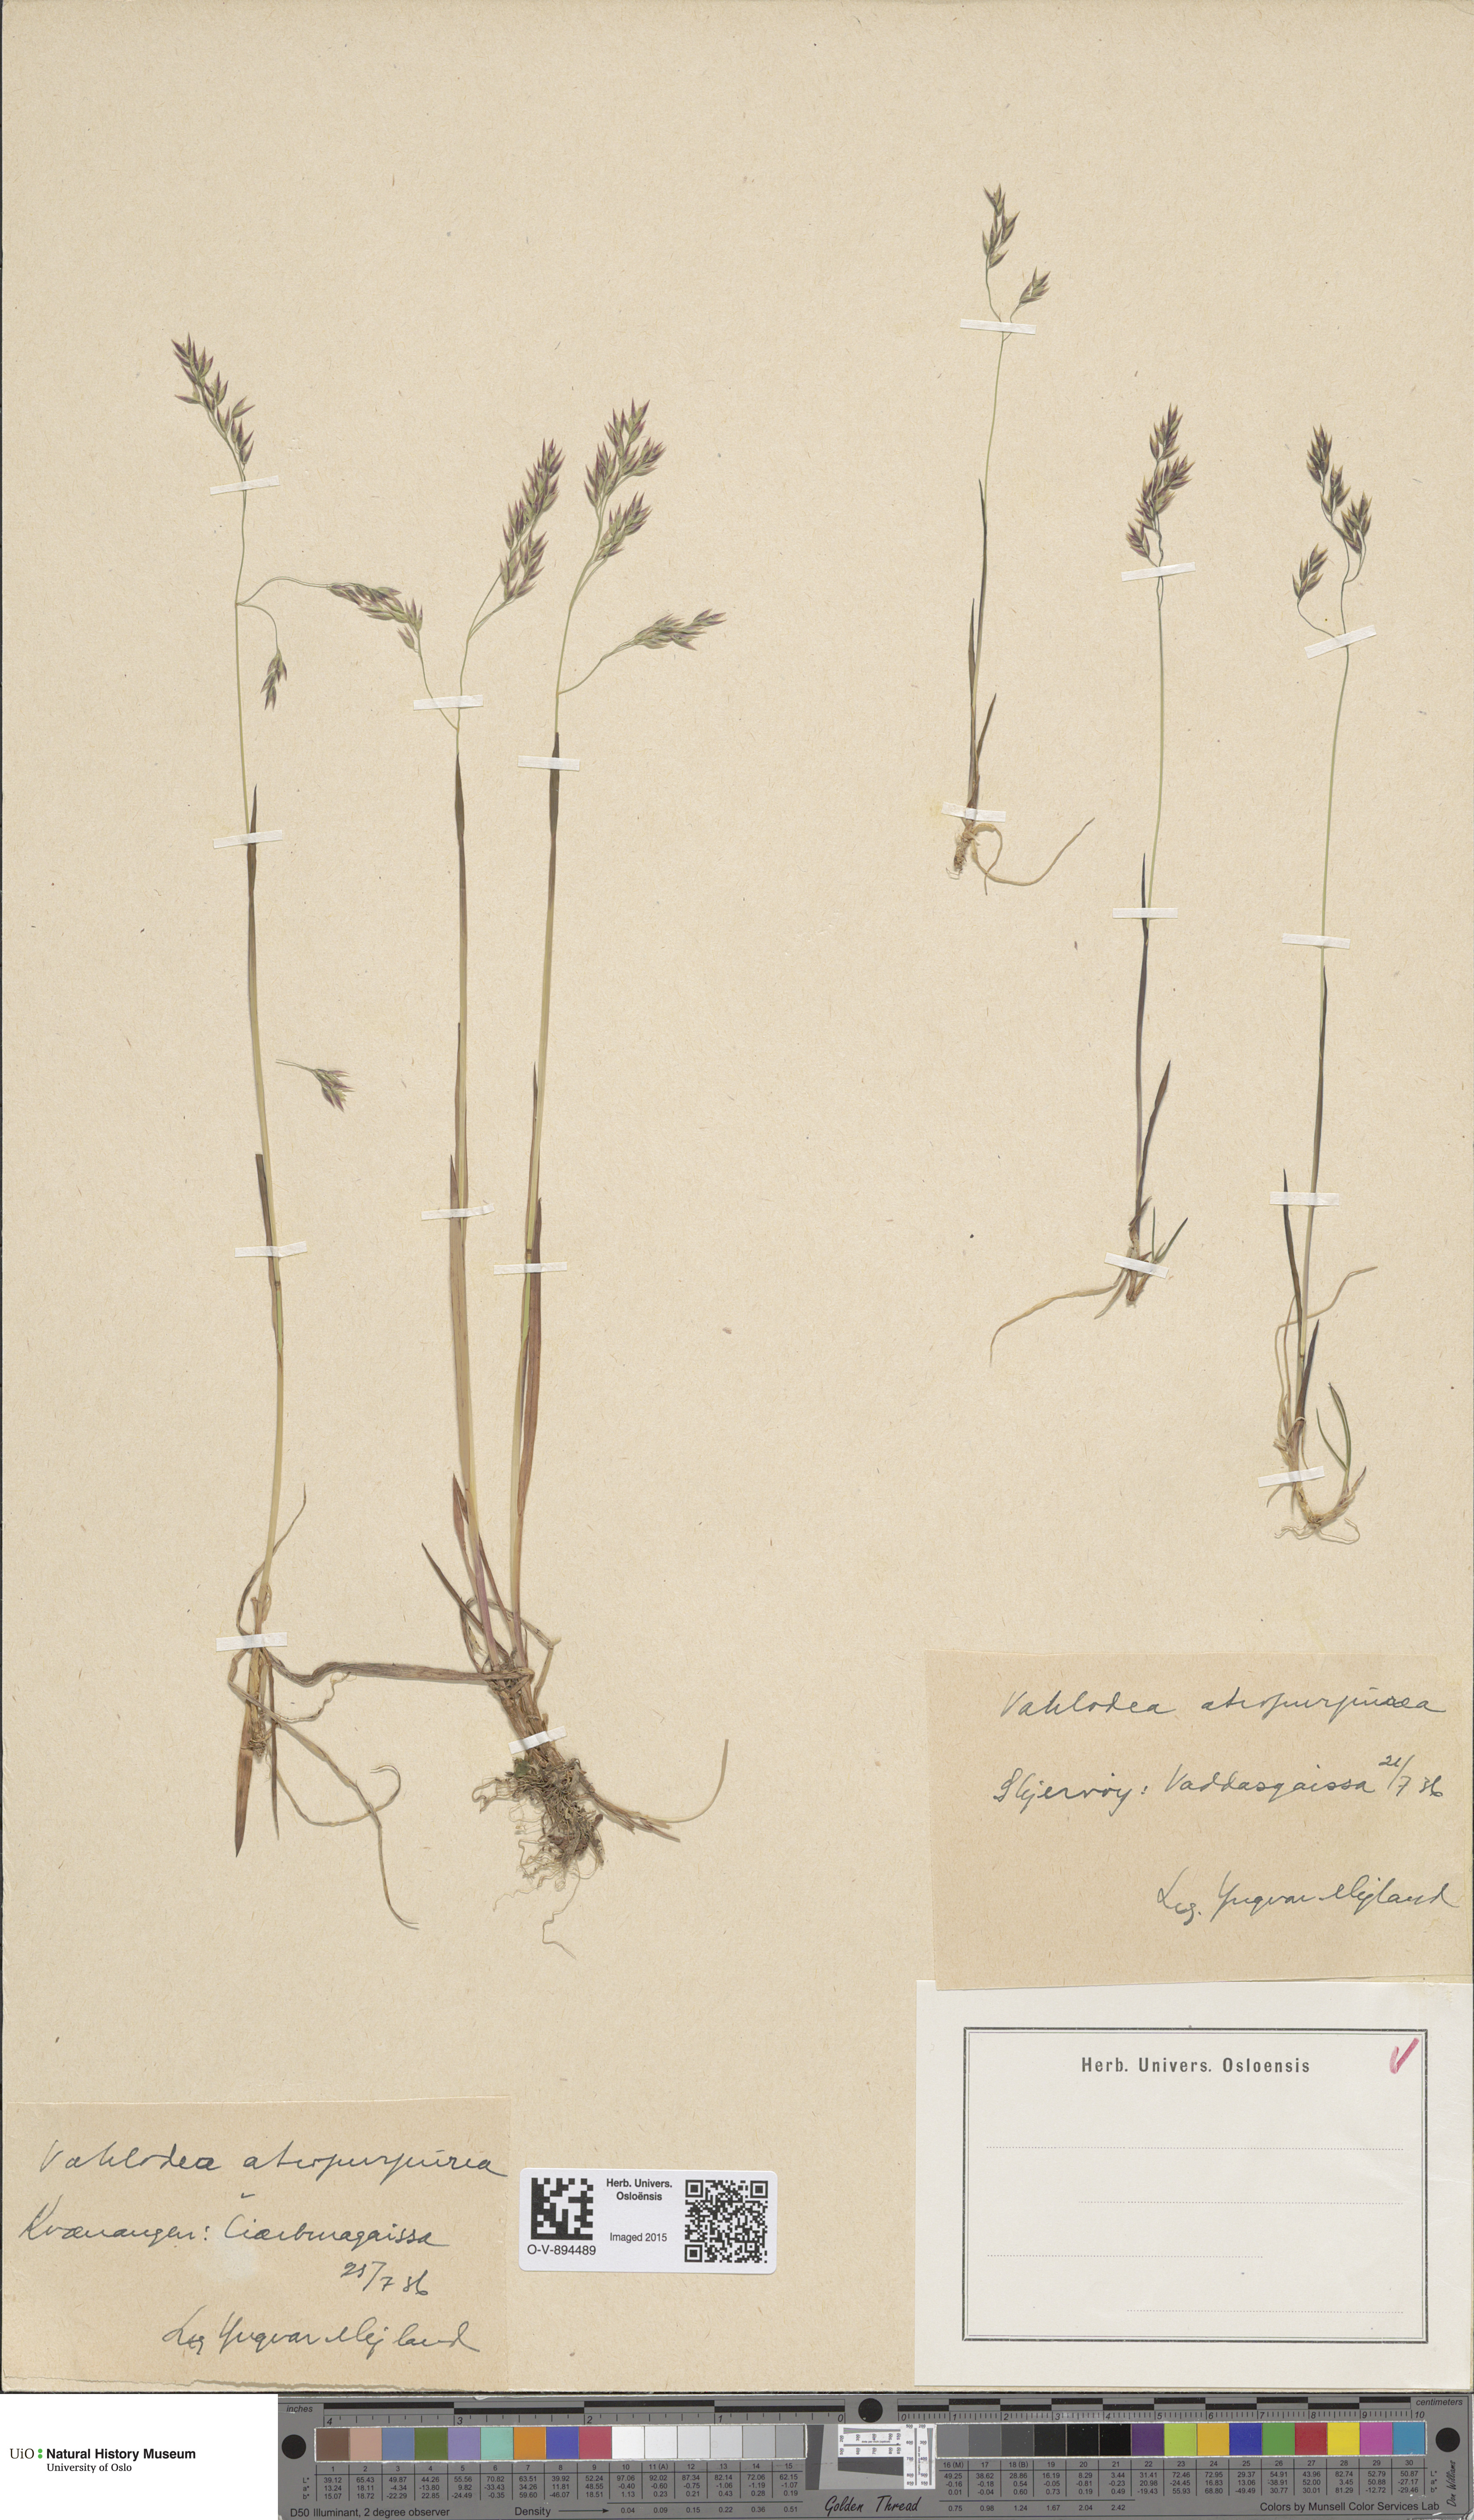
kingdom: Plantae
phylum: Tracheophyta
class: Liliopsida
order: Poales
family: Poaceae
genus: Vahlodea
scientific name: Vahlodea atropurpurea
